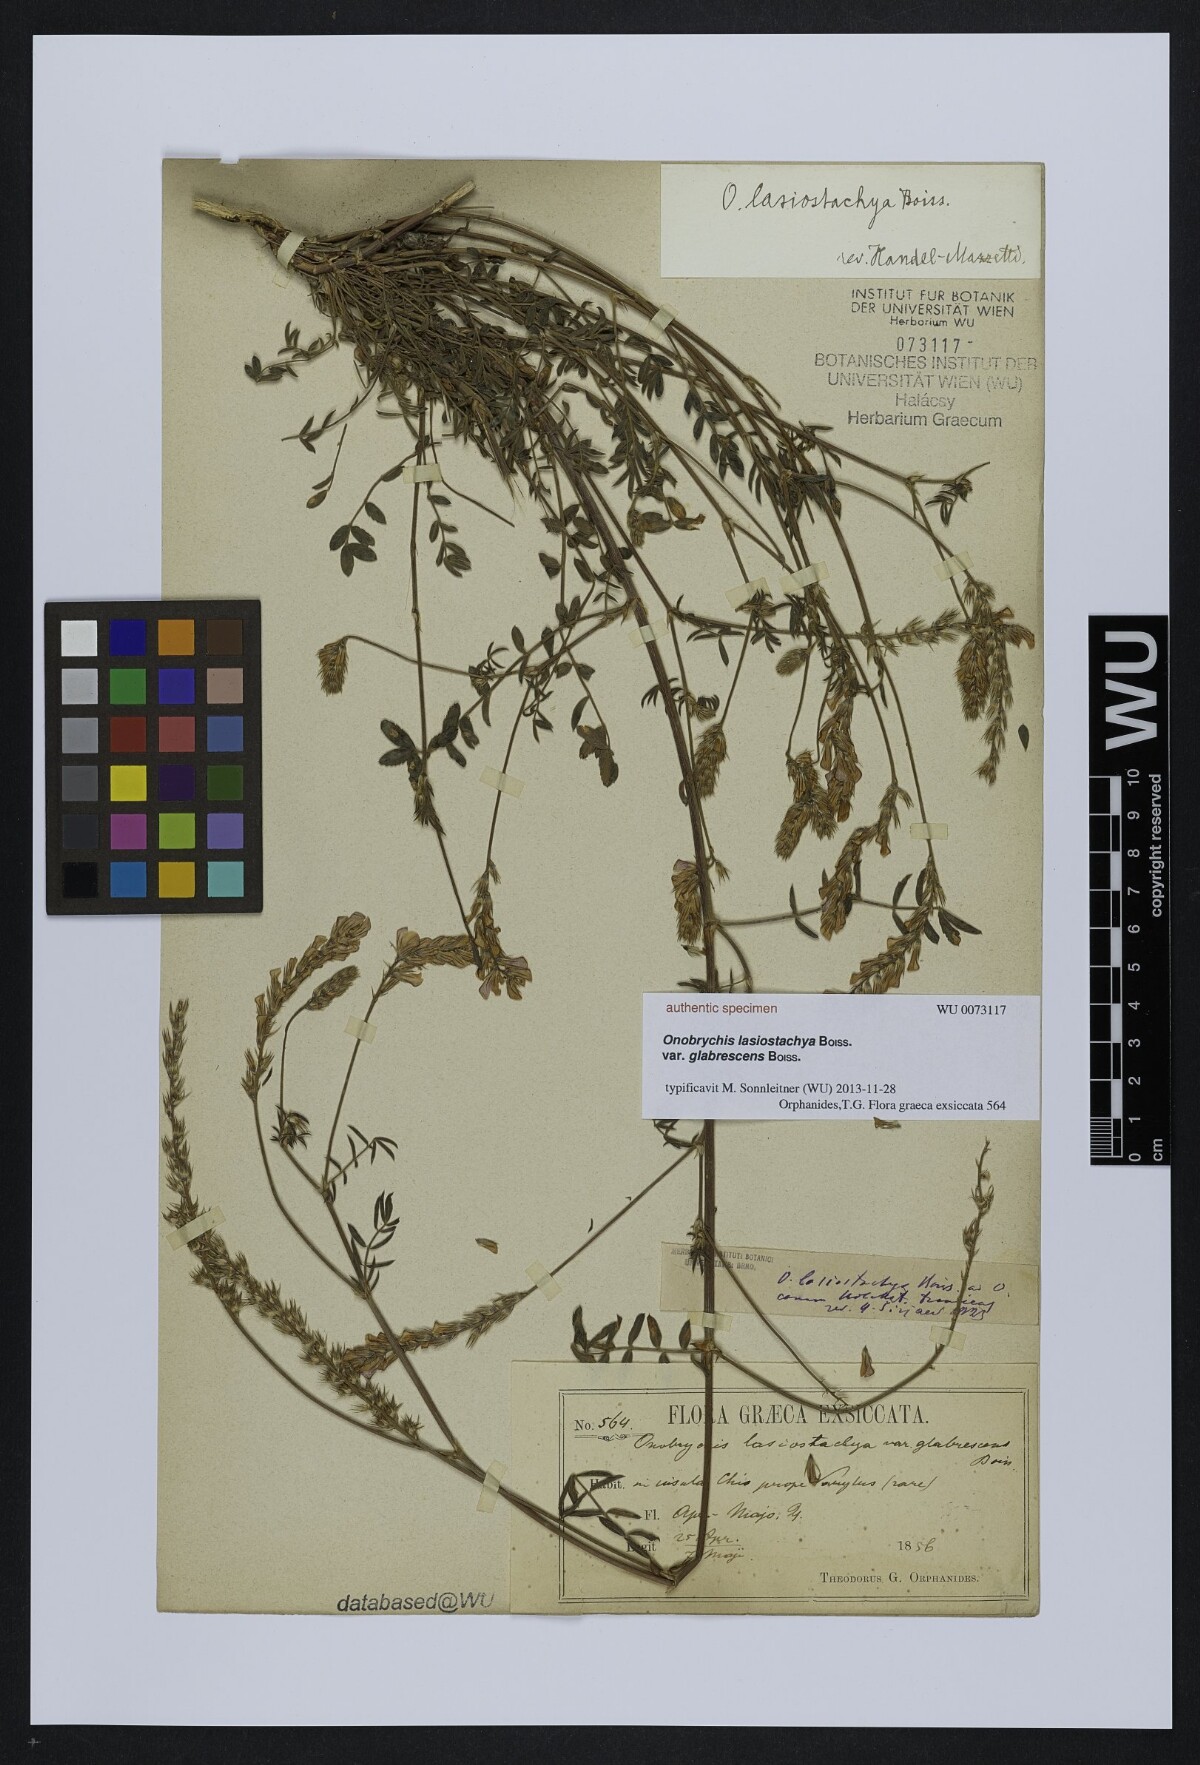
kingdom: Plantae
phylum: Tracheophyta
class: Magnoliopsida
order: Fabales
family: Fabaceae
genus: Onobrychis
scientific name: Onobrychis arenaria
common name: Sand esparcet
